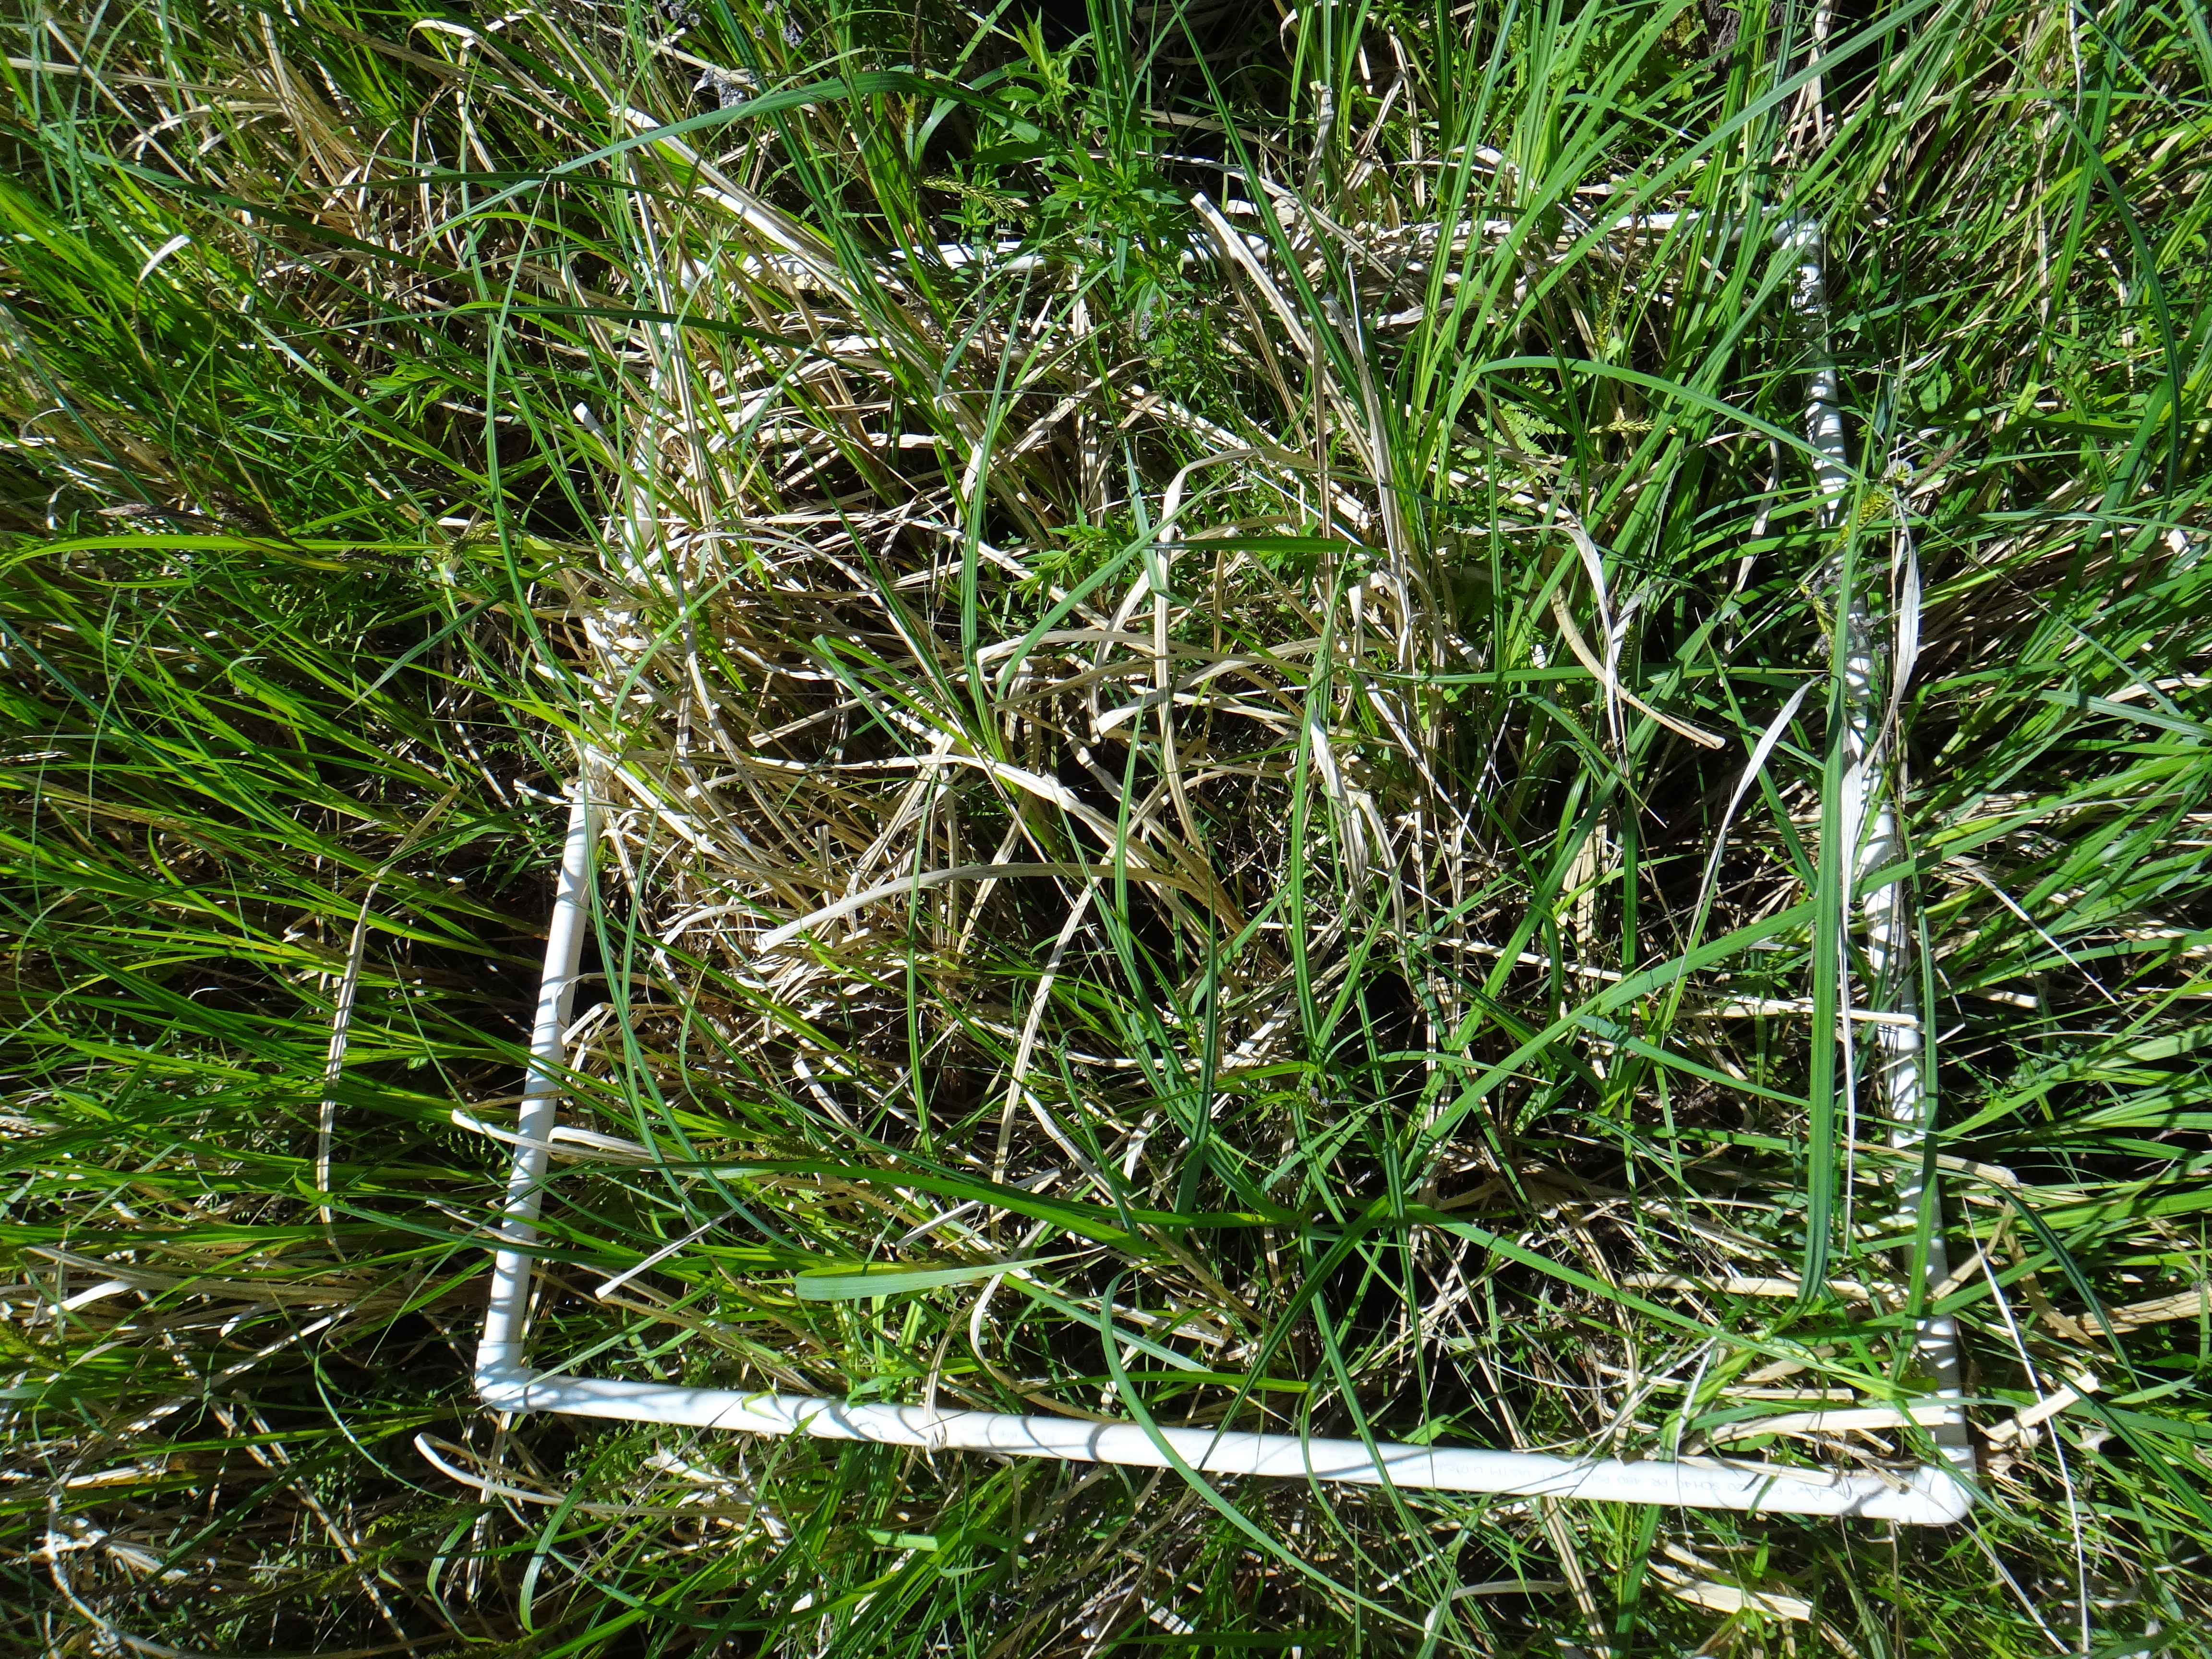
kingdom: Plantae
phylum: Tracheophyta
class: Liliopsida
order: Poales
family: Cyperaceae
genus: Carex
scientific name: Carex lacustris
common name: Common lake sedge
